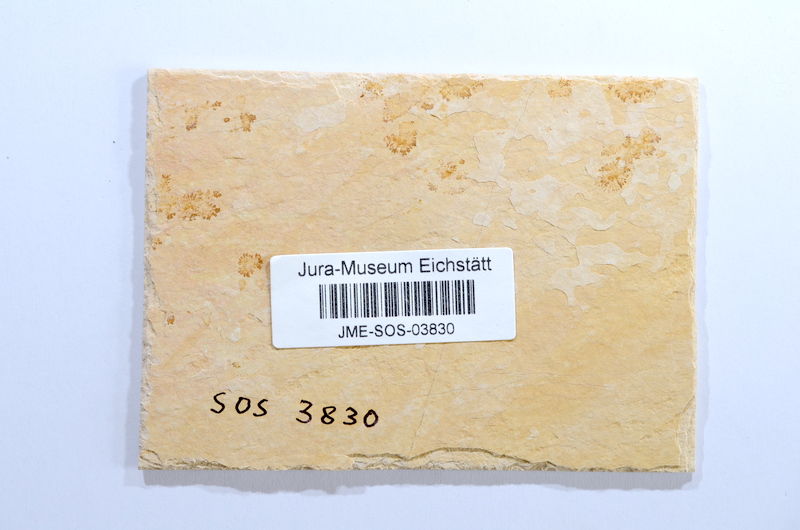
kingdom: Animalia
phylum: Chordata
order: Elopiformes
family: Anaethalionidae
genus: Anaethalion
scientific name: Anaethalion
